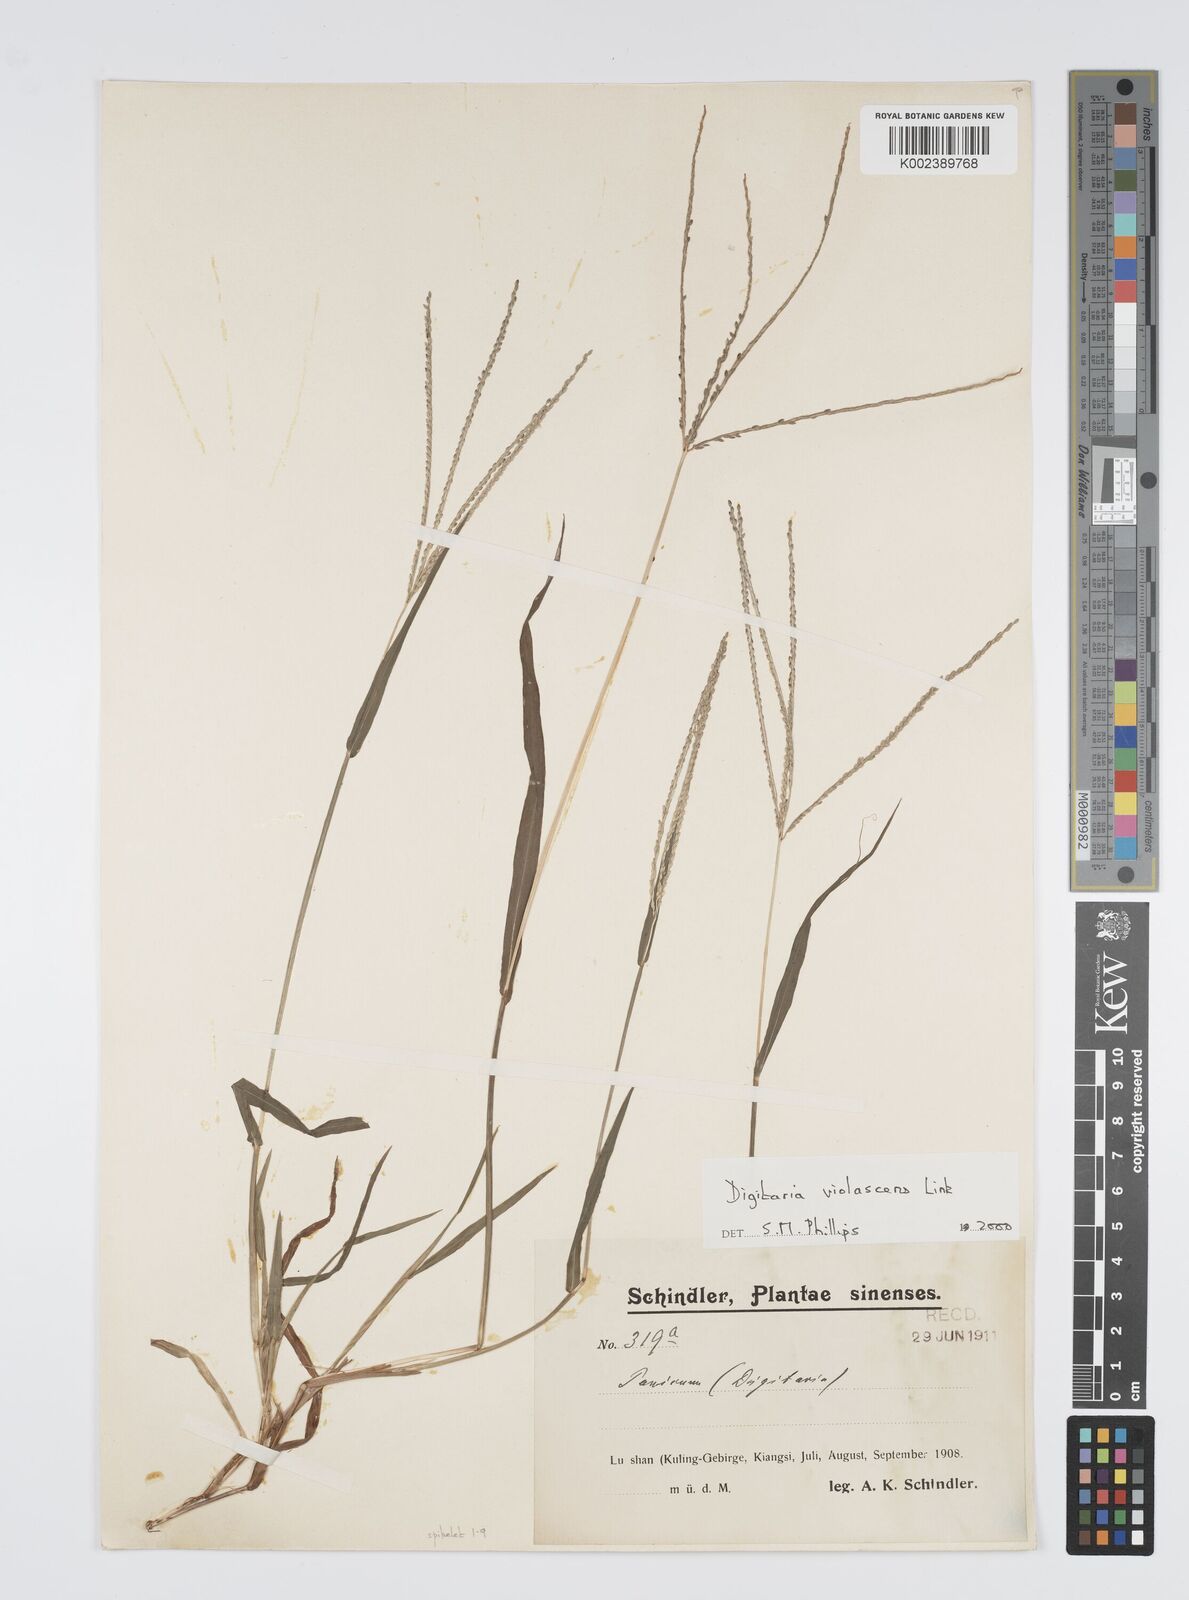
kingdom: Plantae
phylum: Tracheophyta
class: Liliopsida
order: Poales
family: Poaceae
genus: Digitaria
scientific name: Digitaria violascens
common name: Violet crabgrass
